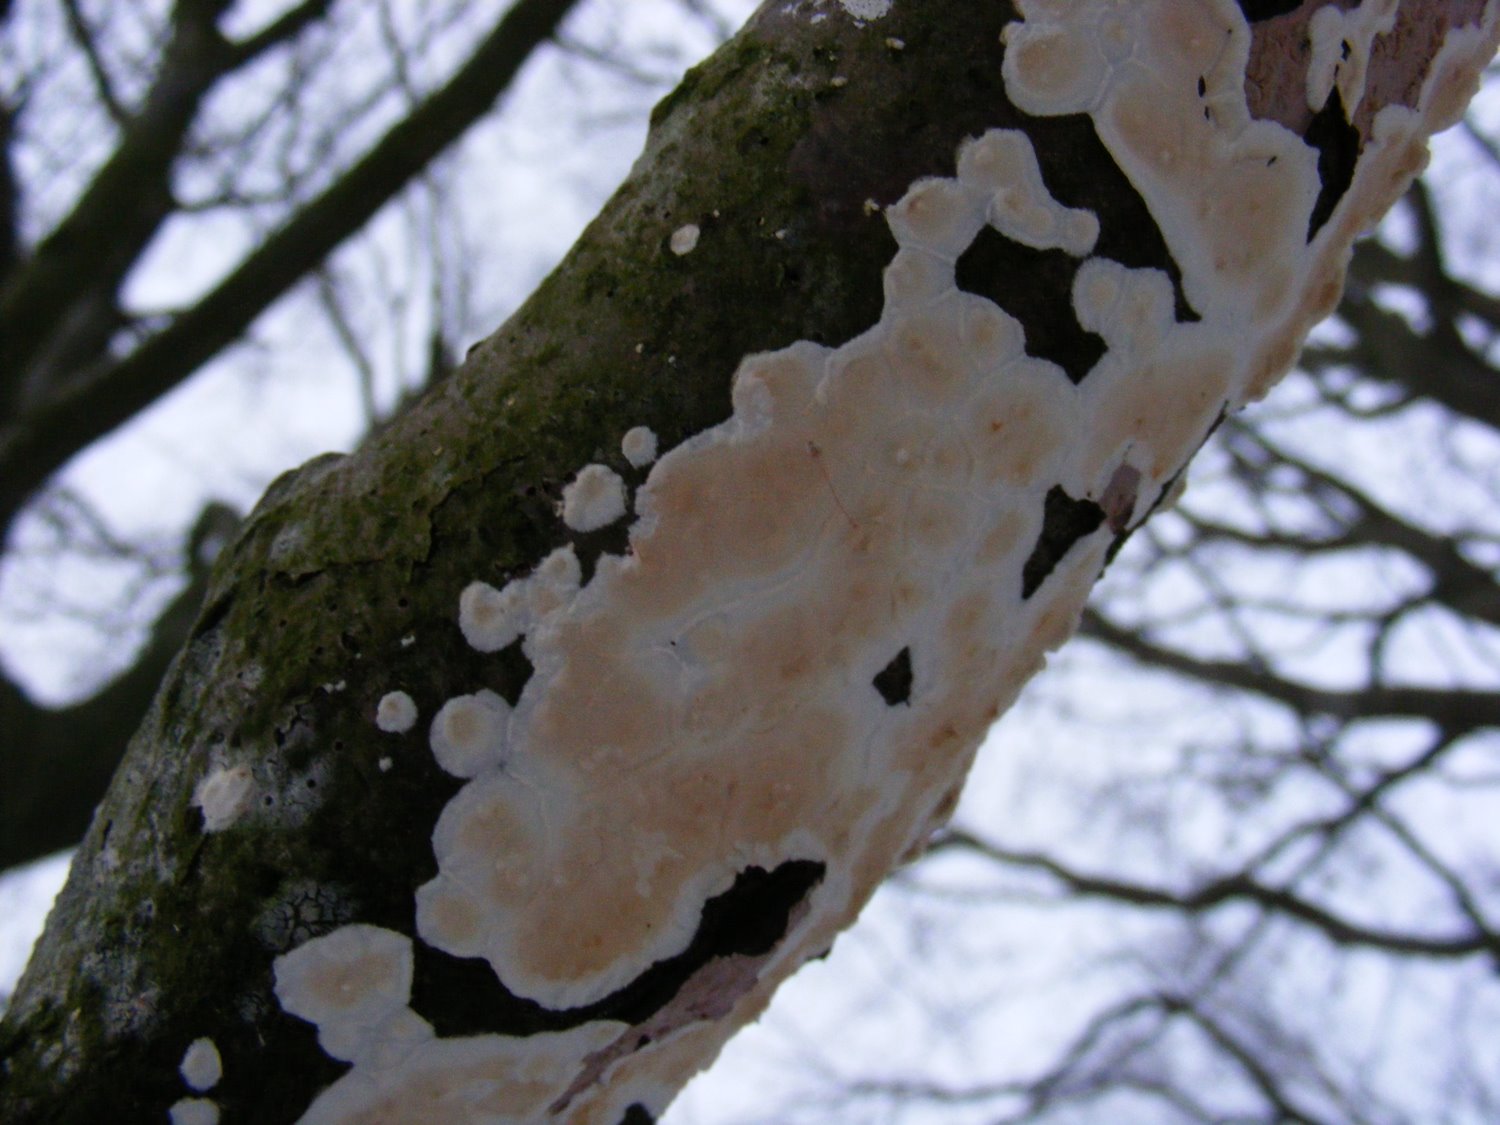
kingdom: Fungi
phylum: Basidiomycota
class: Agaricomycetes
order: Polyporales
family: Irpicaceae
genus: Byssomerulius
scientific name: Byssomerulius corium
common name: læder-åresvamp
